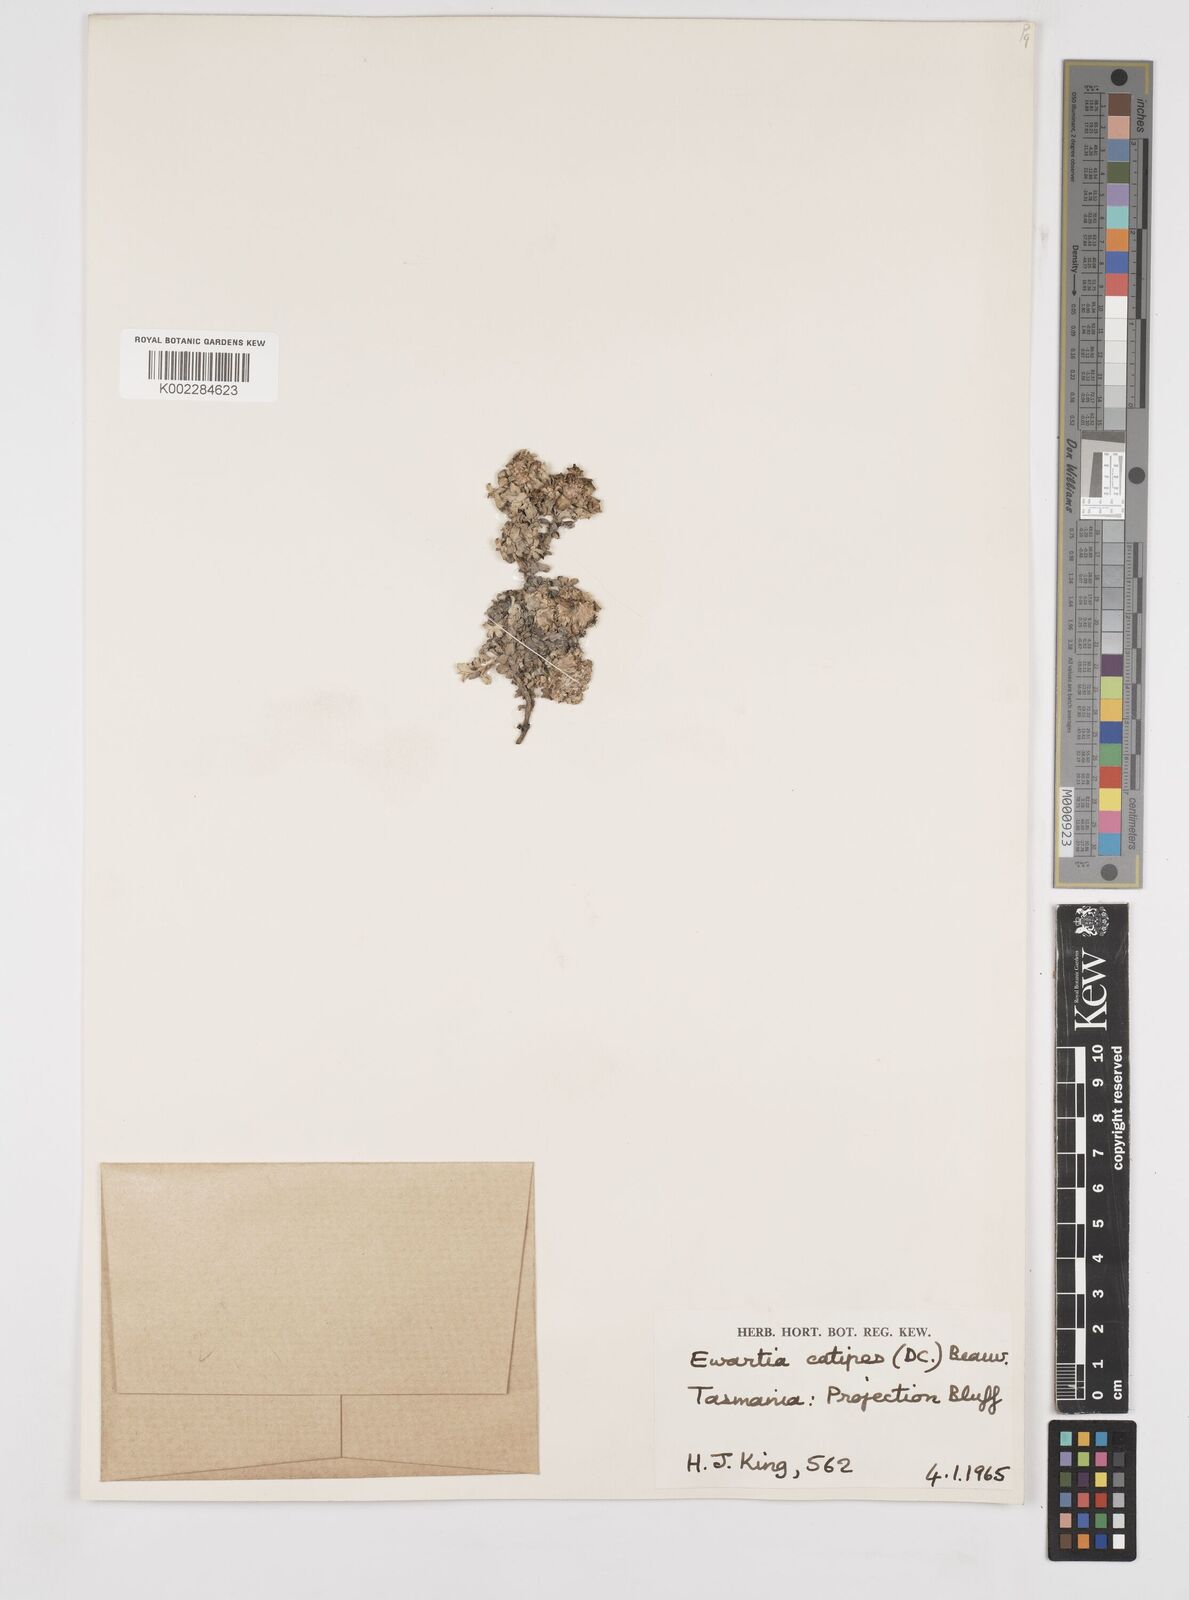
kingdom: Plantae
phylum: Tracheophyta
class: Magnoliopsida
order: Asterales
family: Asteraceae
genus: Ewartia
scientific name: Ewartia catipes
